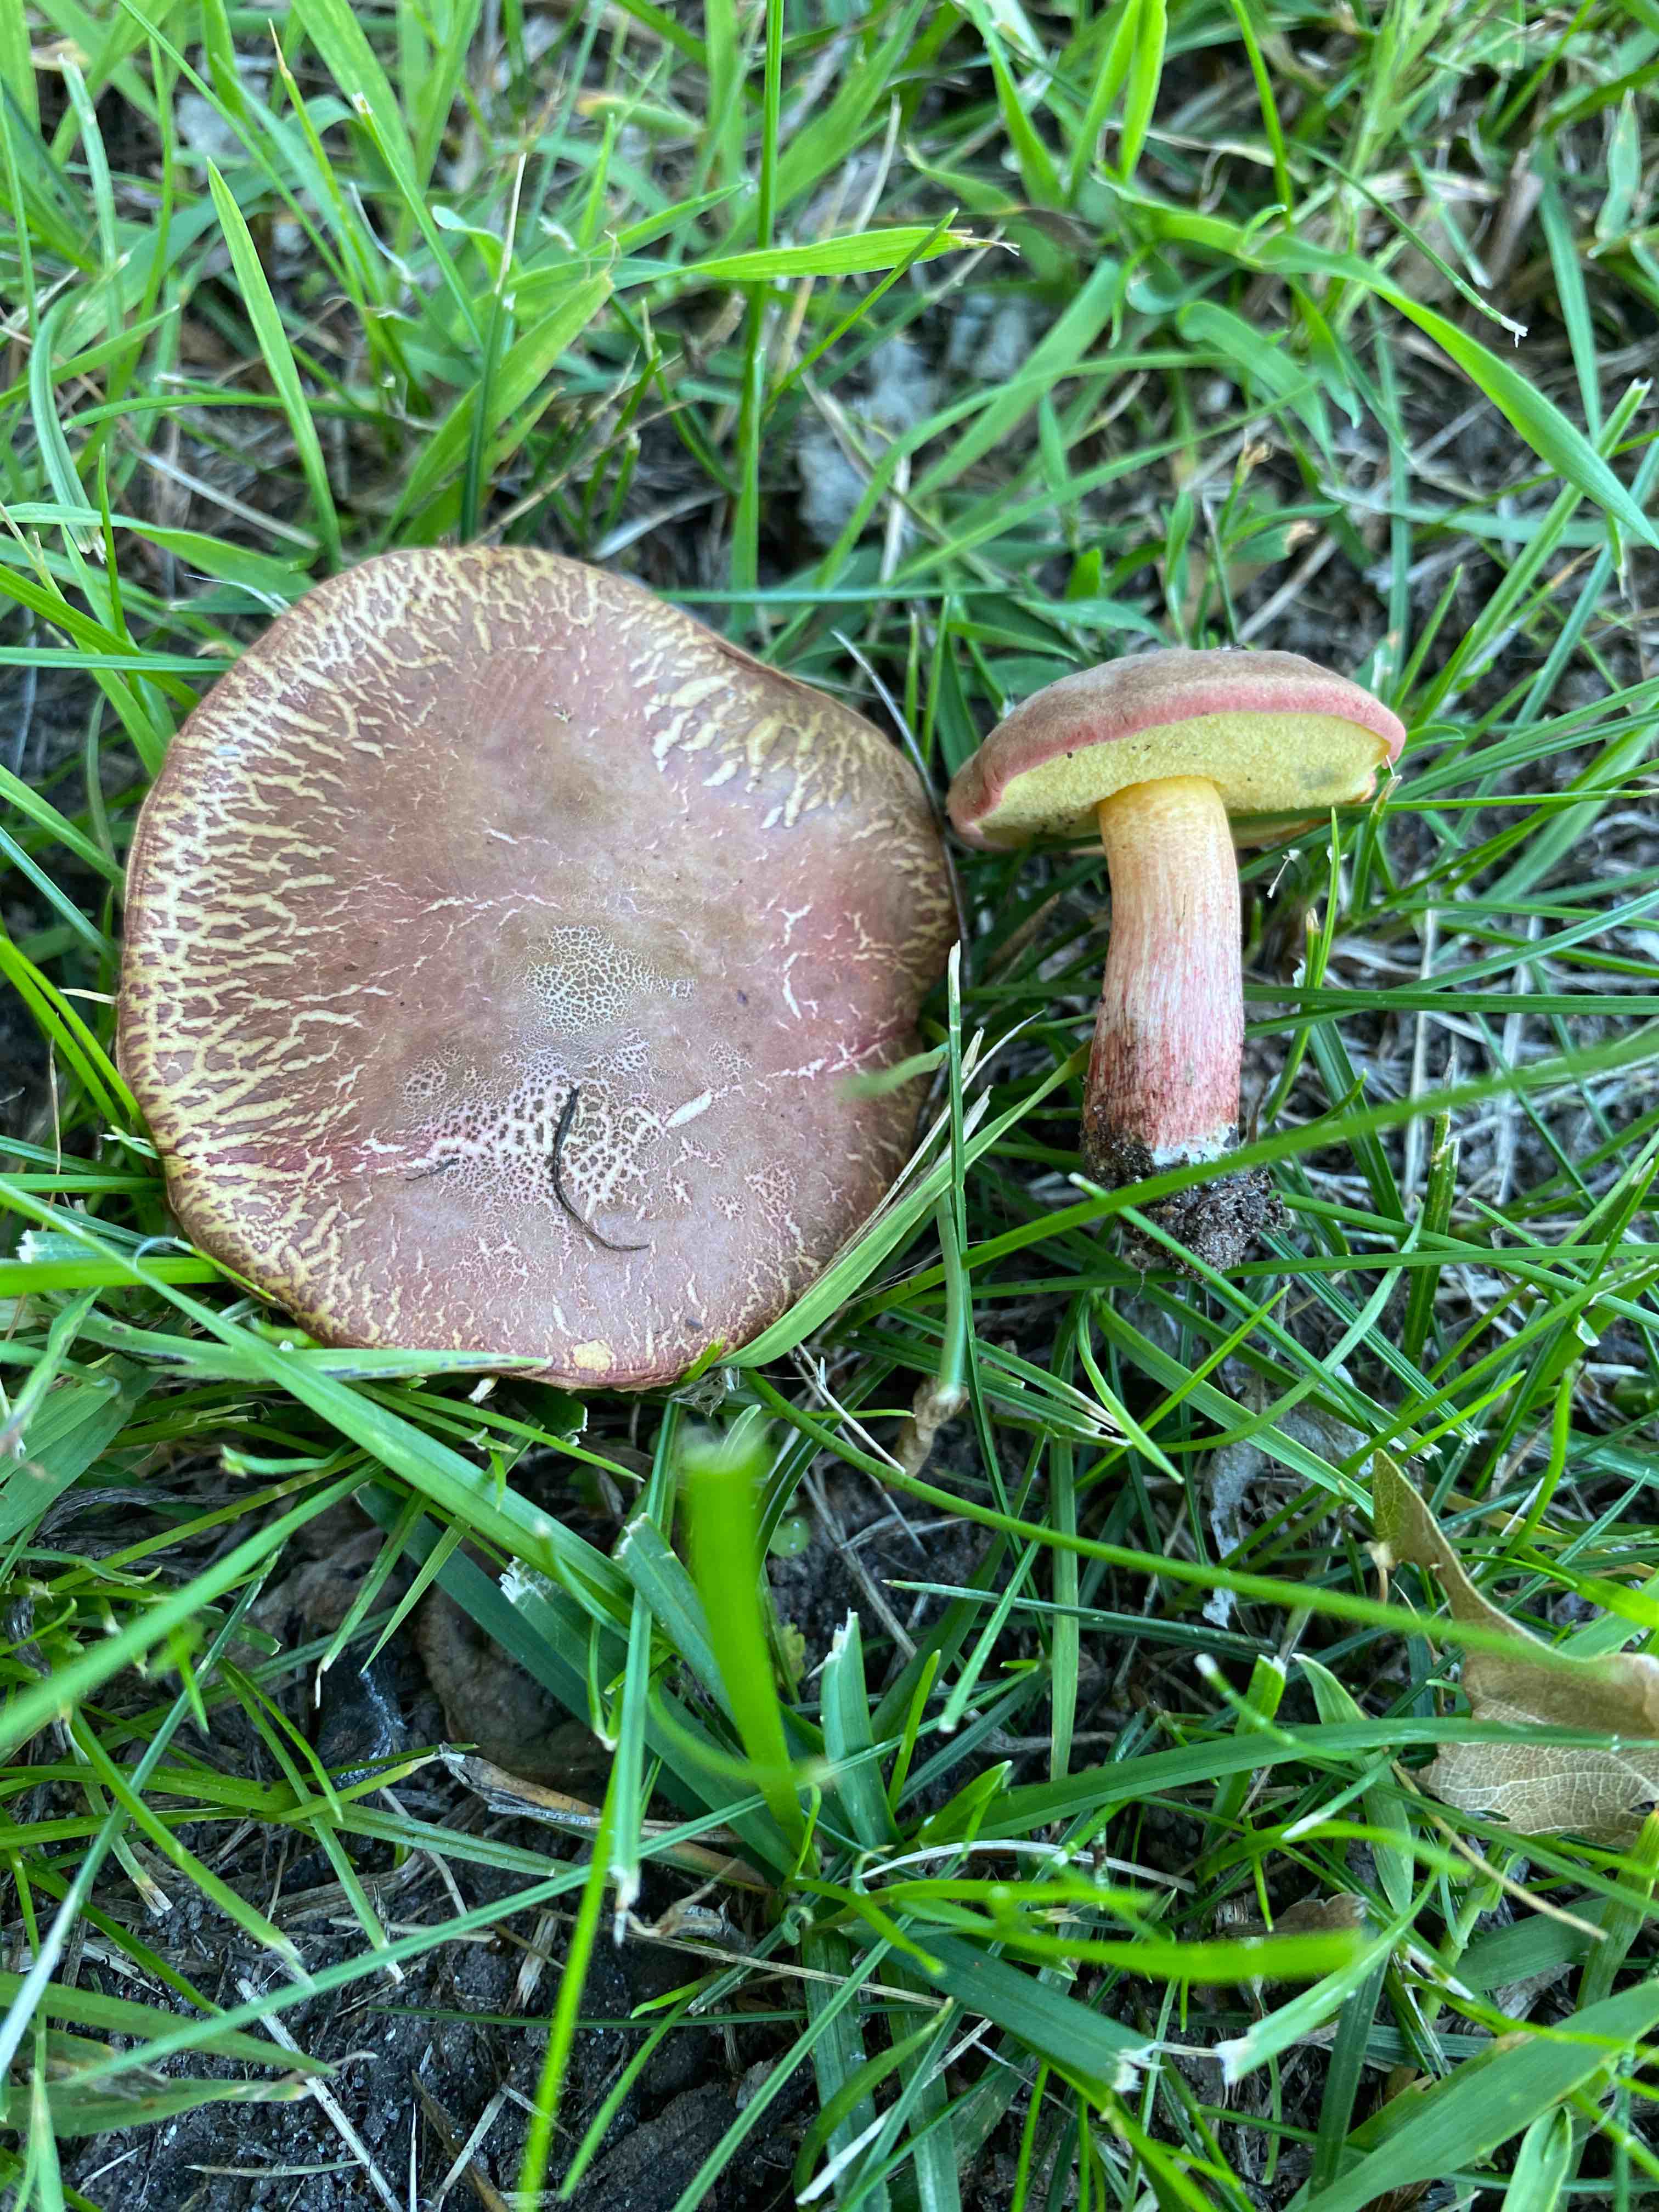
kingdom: Fungi
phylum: Basidiomycota
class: Agaricomycetes
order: Boletales
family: Boletaceae
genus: Xerocomellus
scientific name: Xerocomellus cisalpinus
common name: finsprukken rørhat
